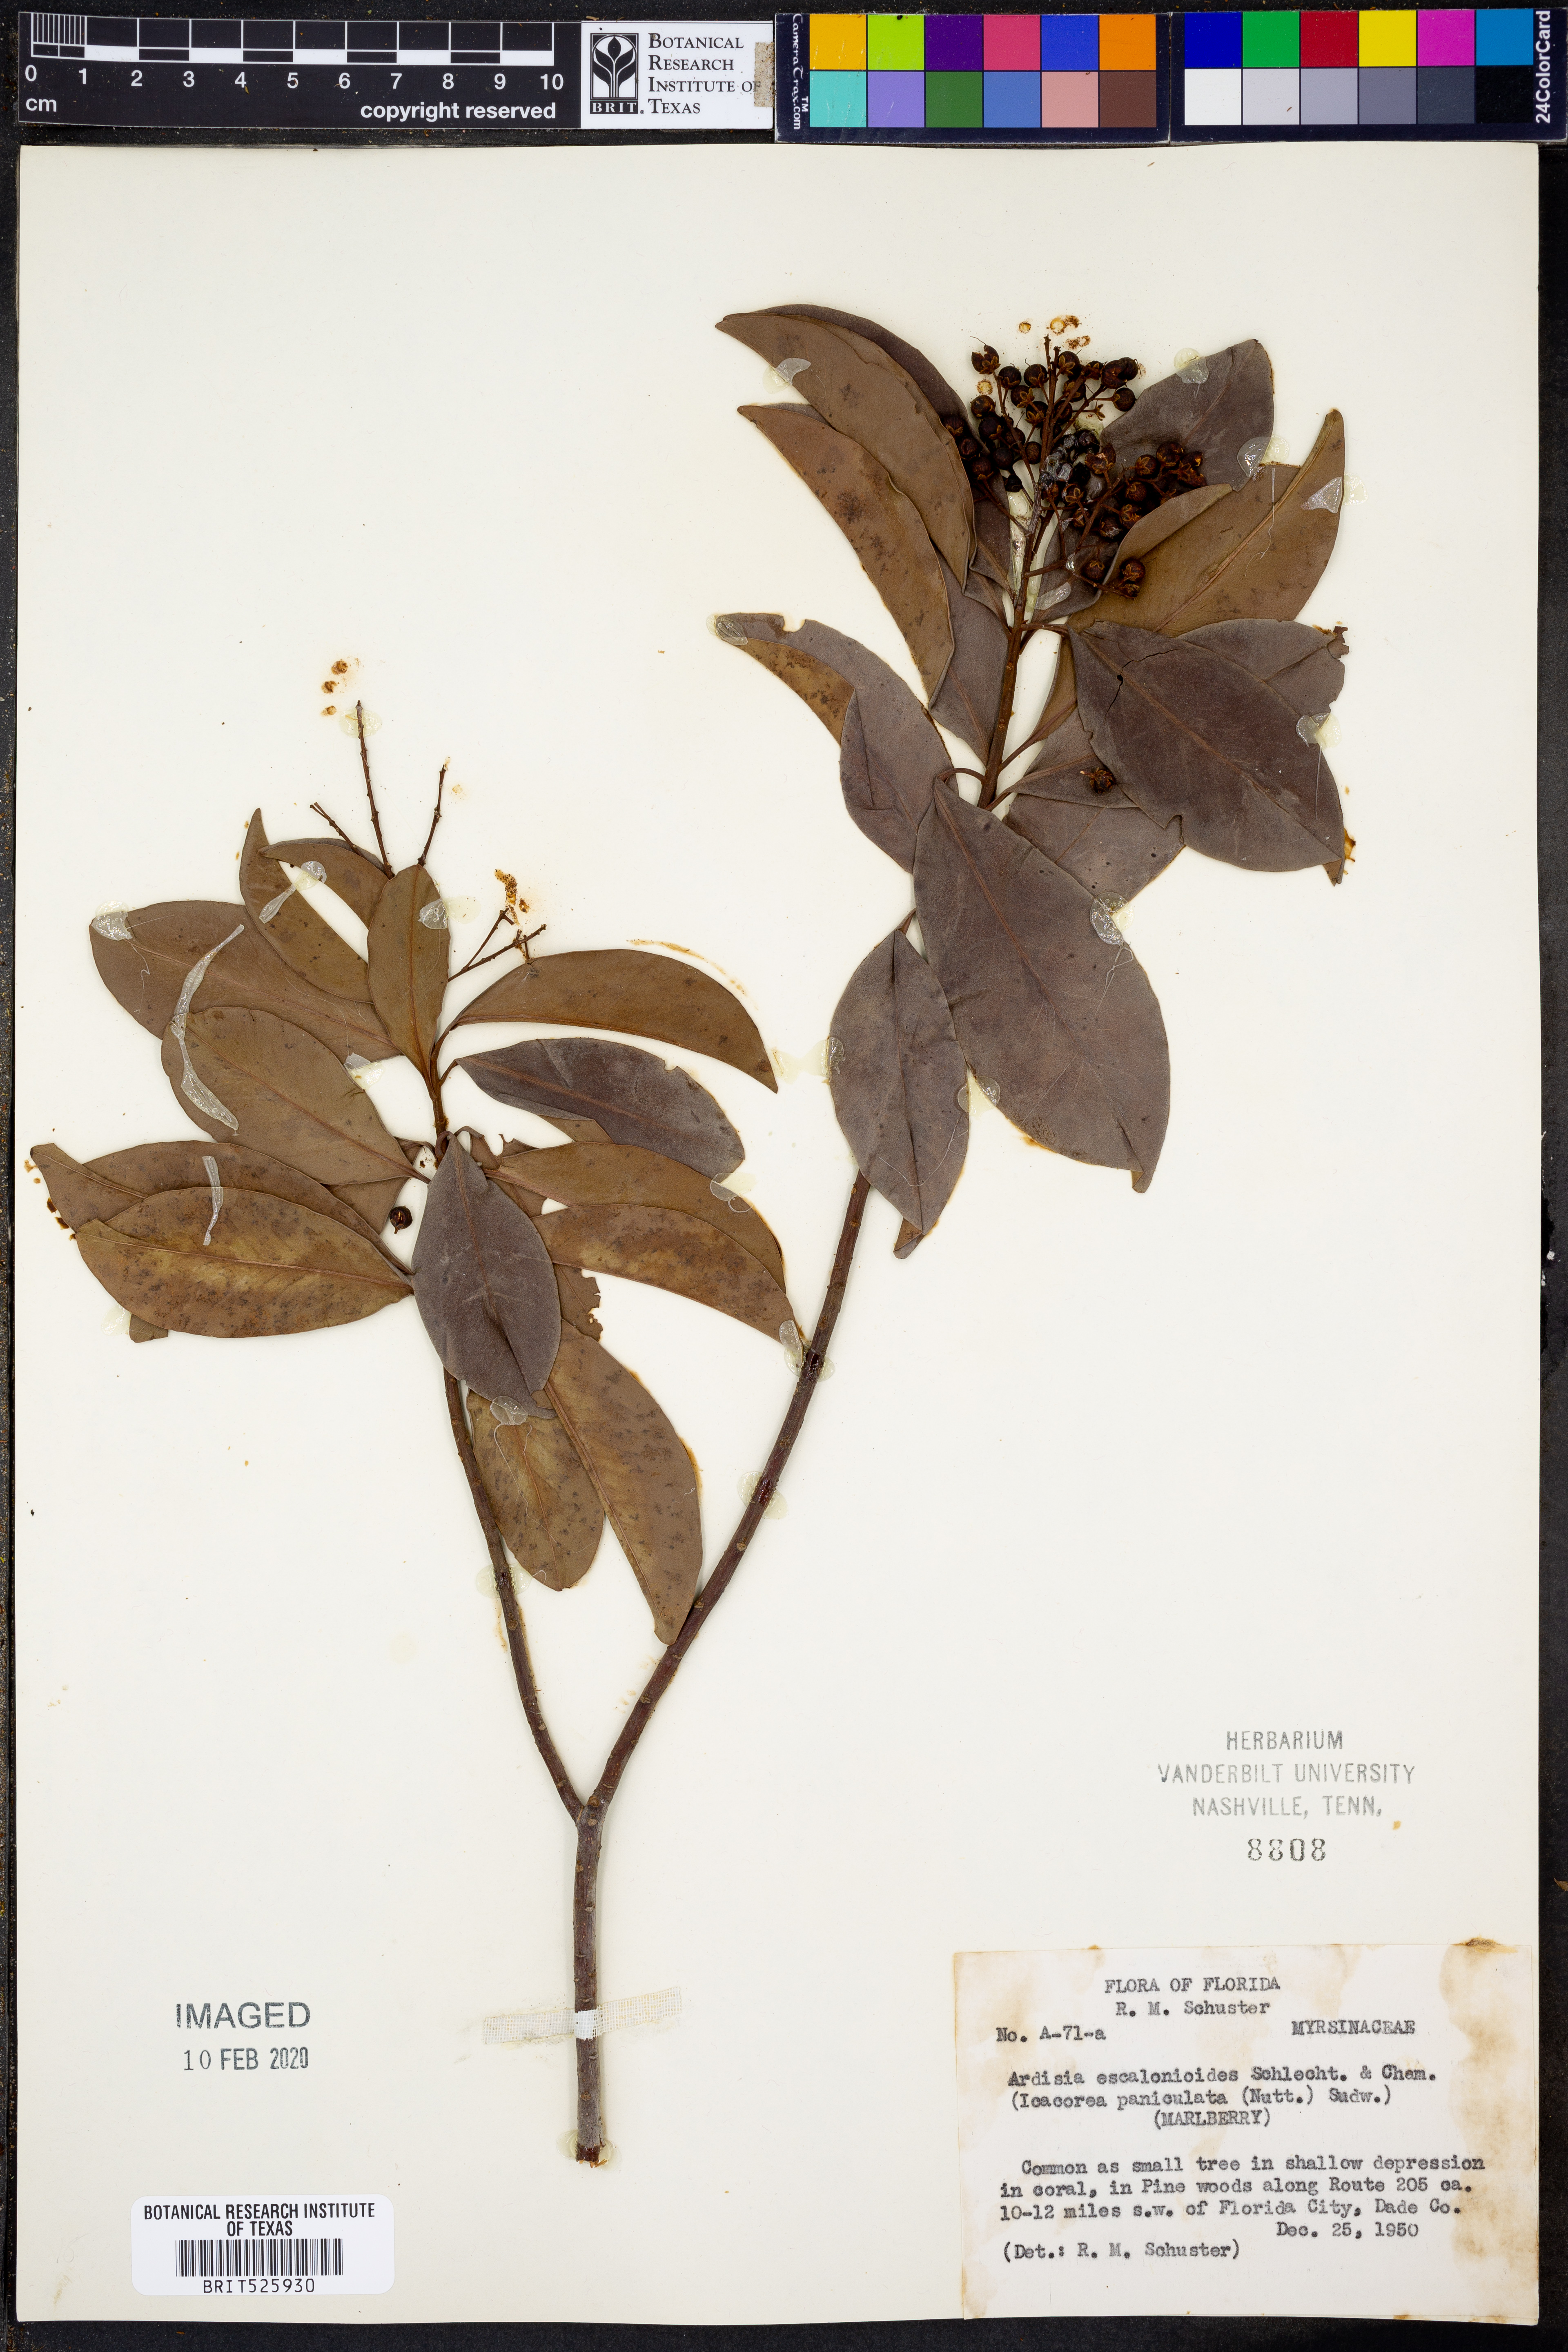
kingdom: Plantae
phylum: Tracheophyta
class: Magnoliopsida
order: Ericales
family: Primulaceae
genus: Ardisia
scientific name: Ardisia escallonioides
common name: Island marlberry
